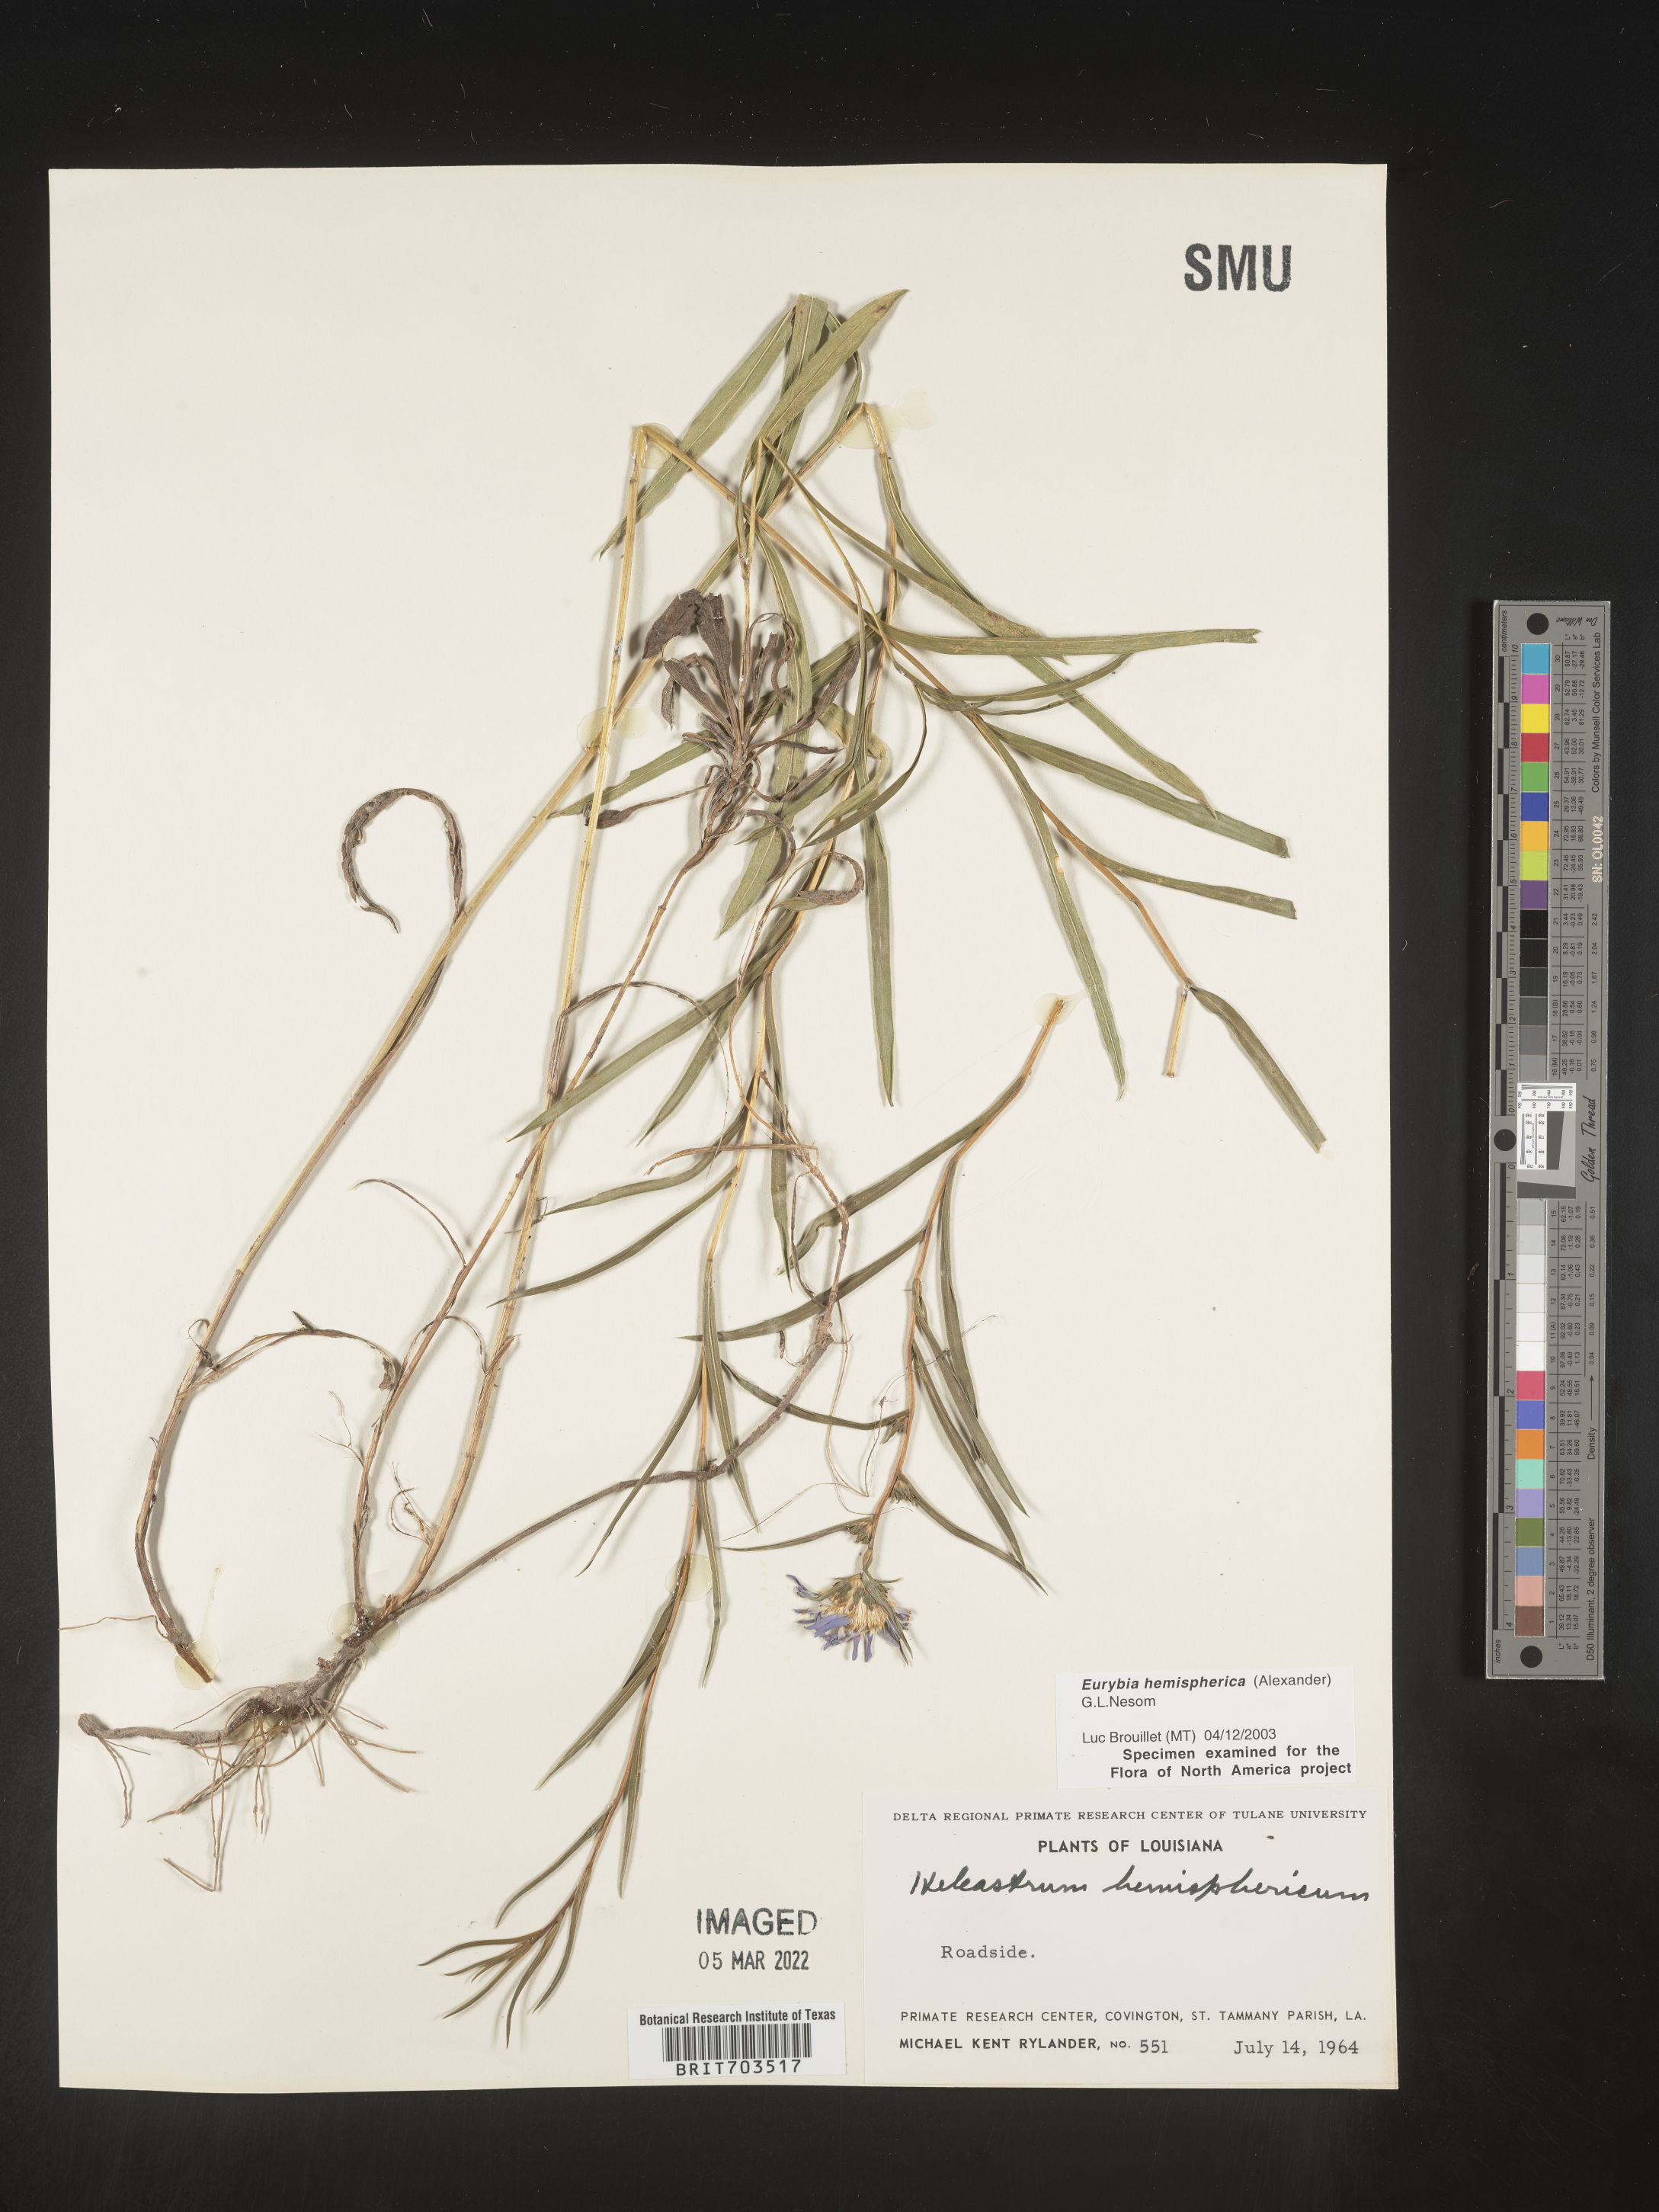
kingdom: Plantae
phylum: Tracheophyta
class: Magnoliopsida
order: Asterales
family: Asteraceae
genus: Eurybia
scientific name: Eurybia hemispherica
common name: Showy aster
